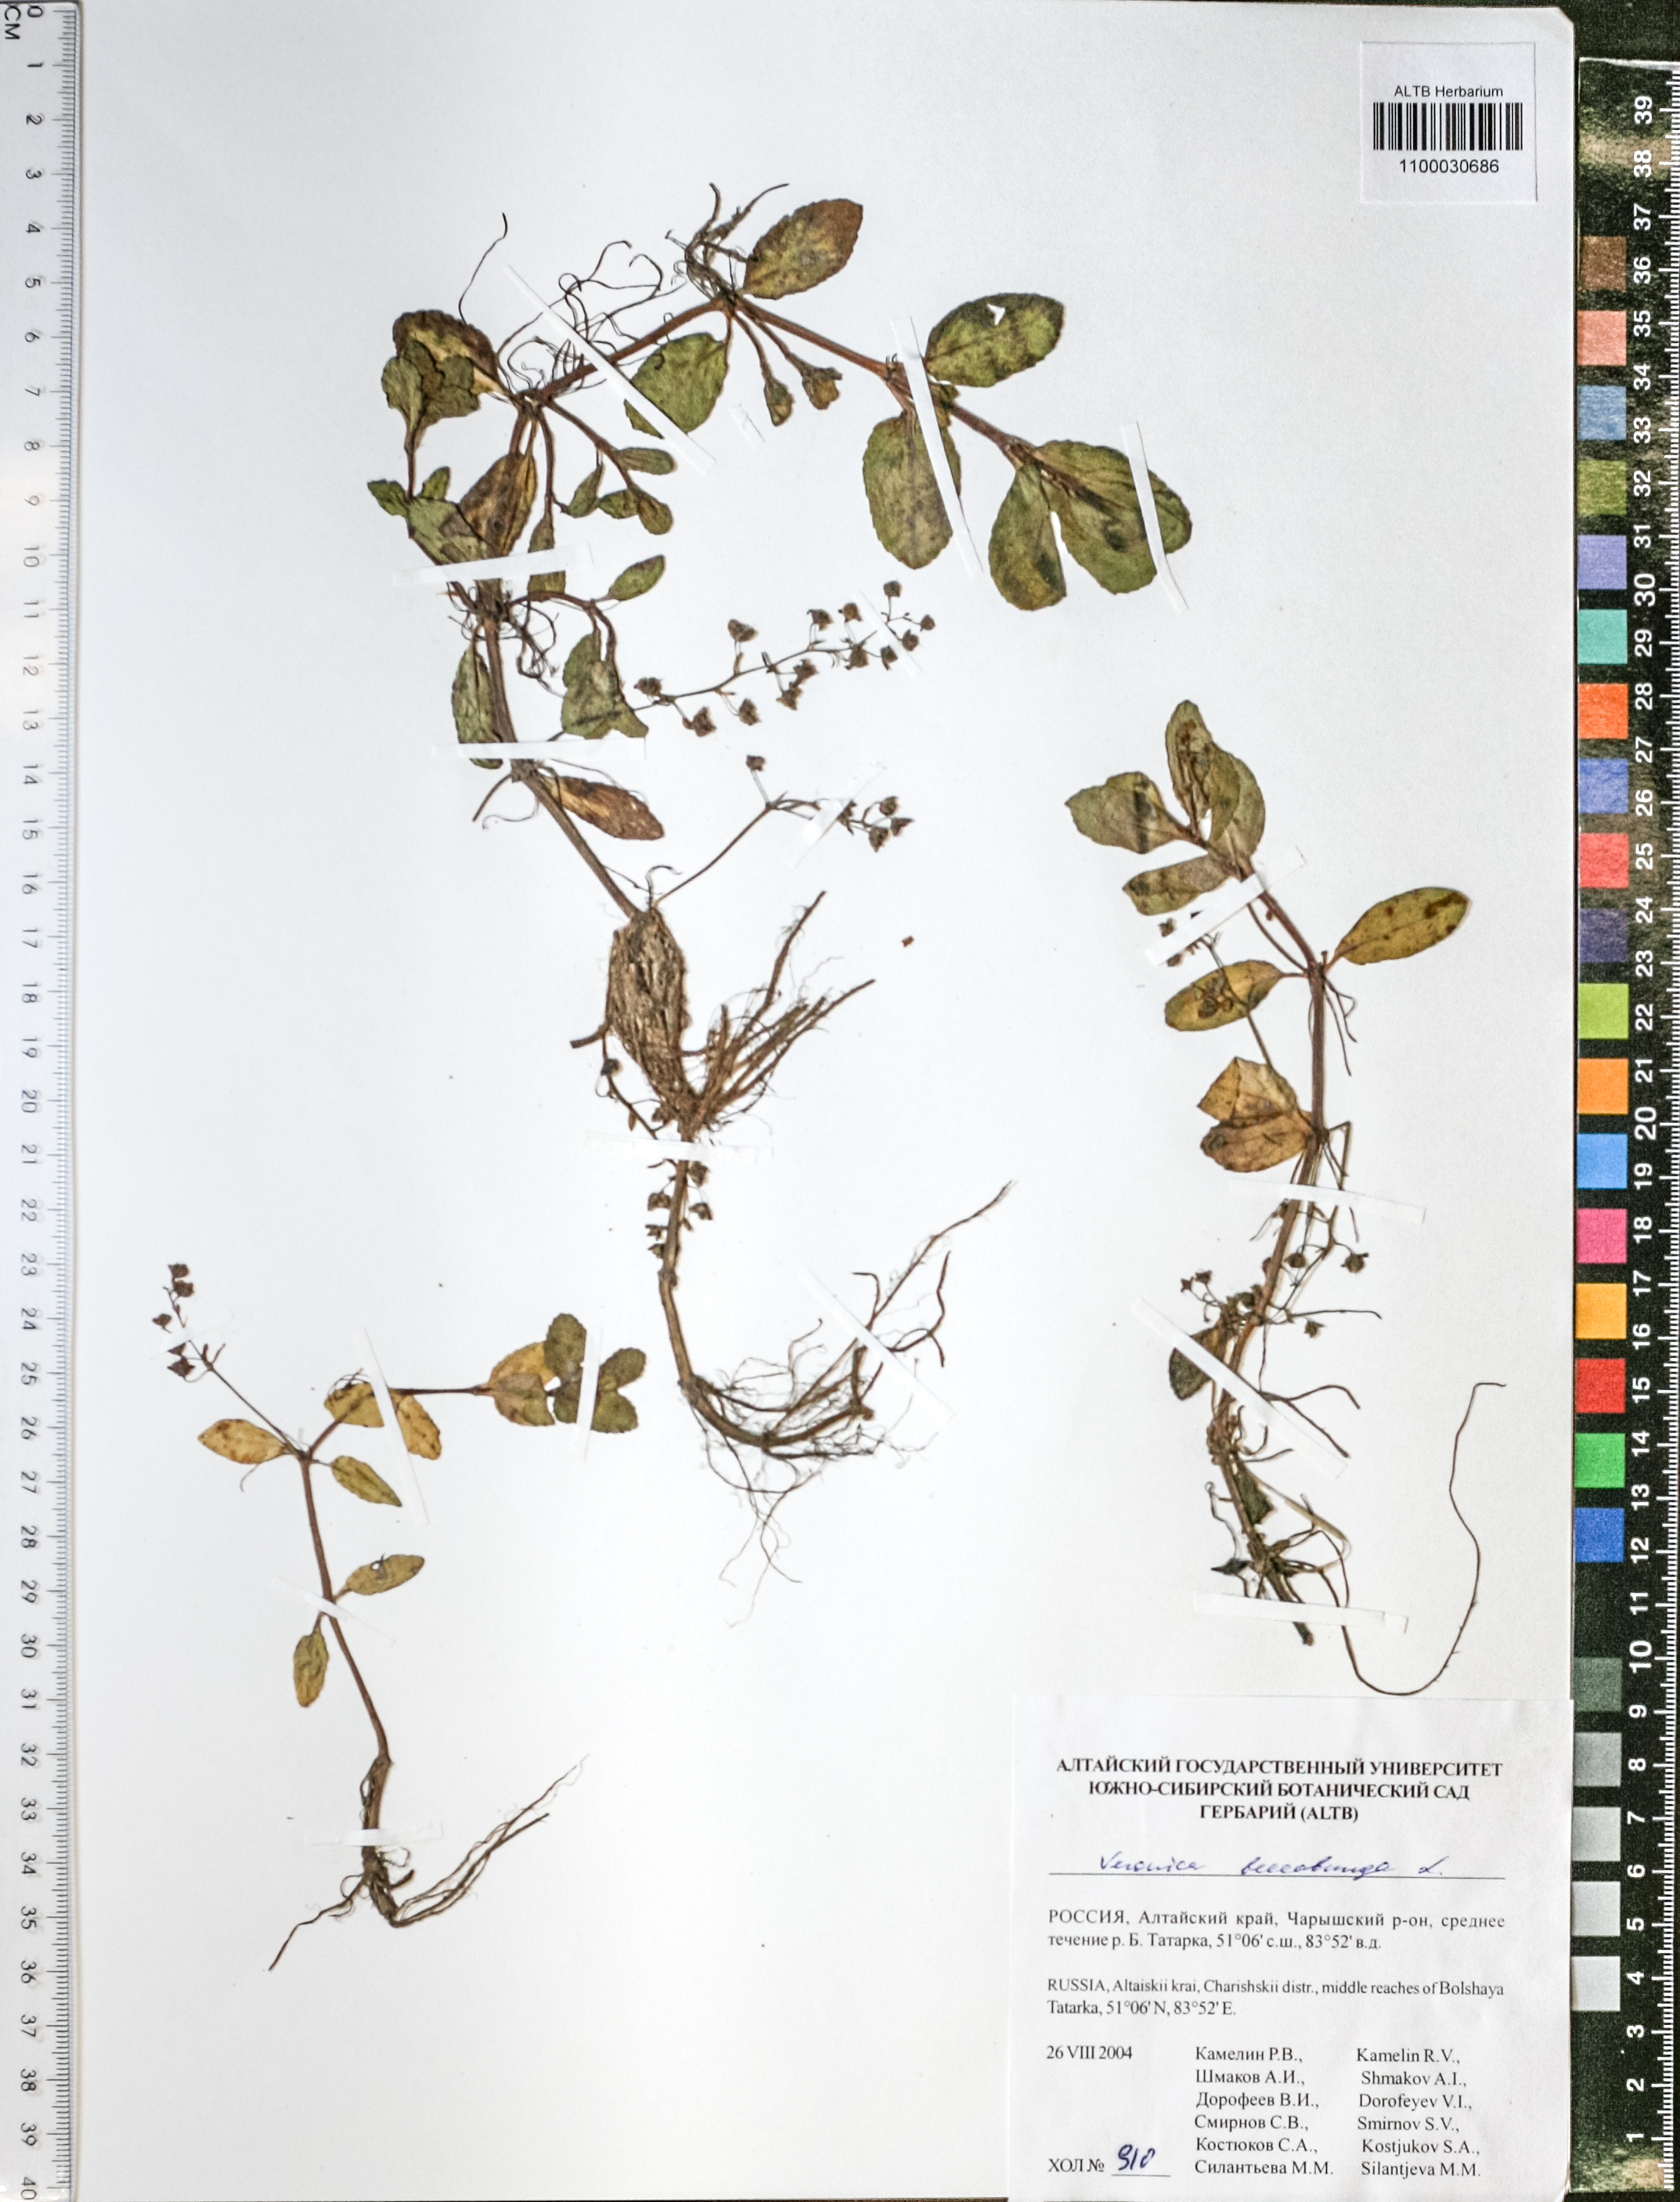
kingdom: Plantae
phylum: Tracheophyta
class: Magnoliopsida
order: Lamiales
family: Plantaginaceae
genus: Veronica
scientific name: Veronica beccabunga
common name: Brooklime
